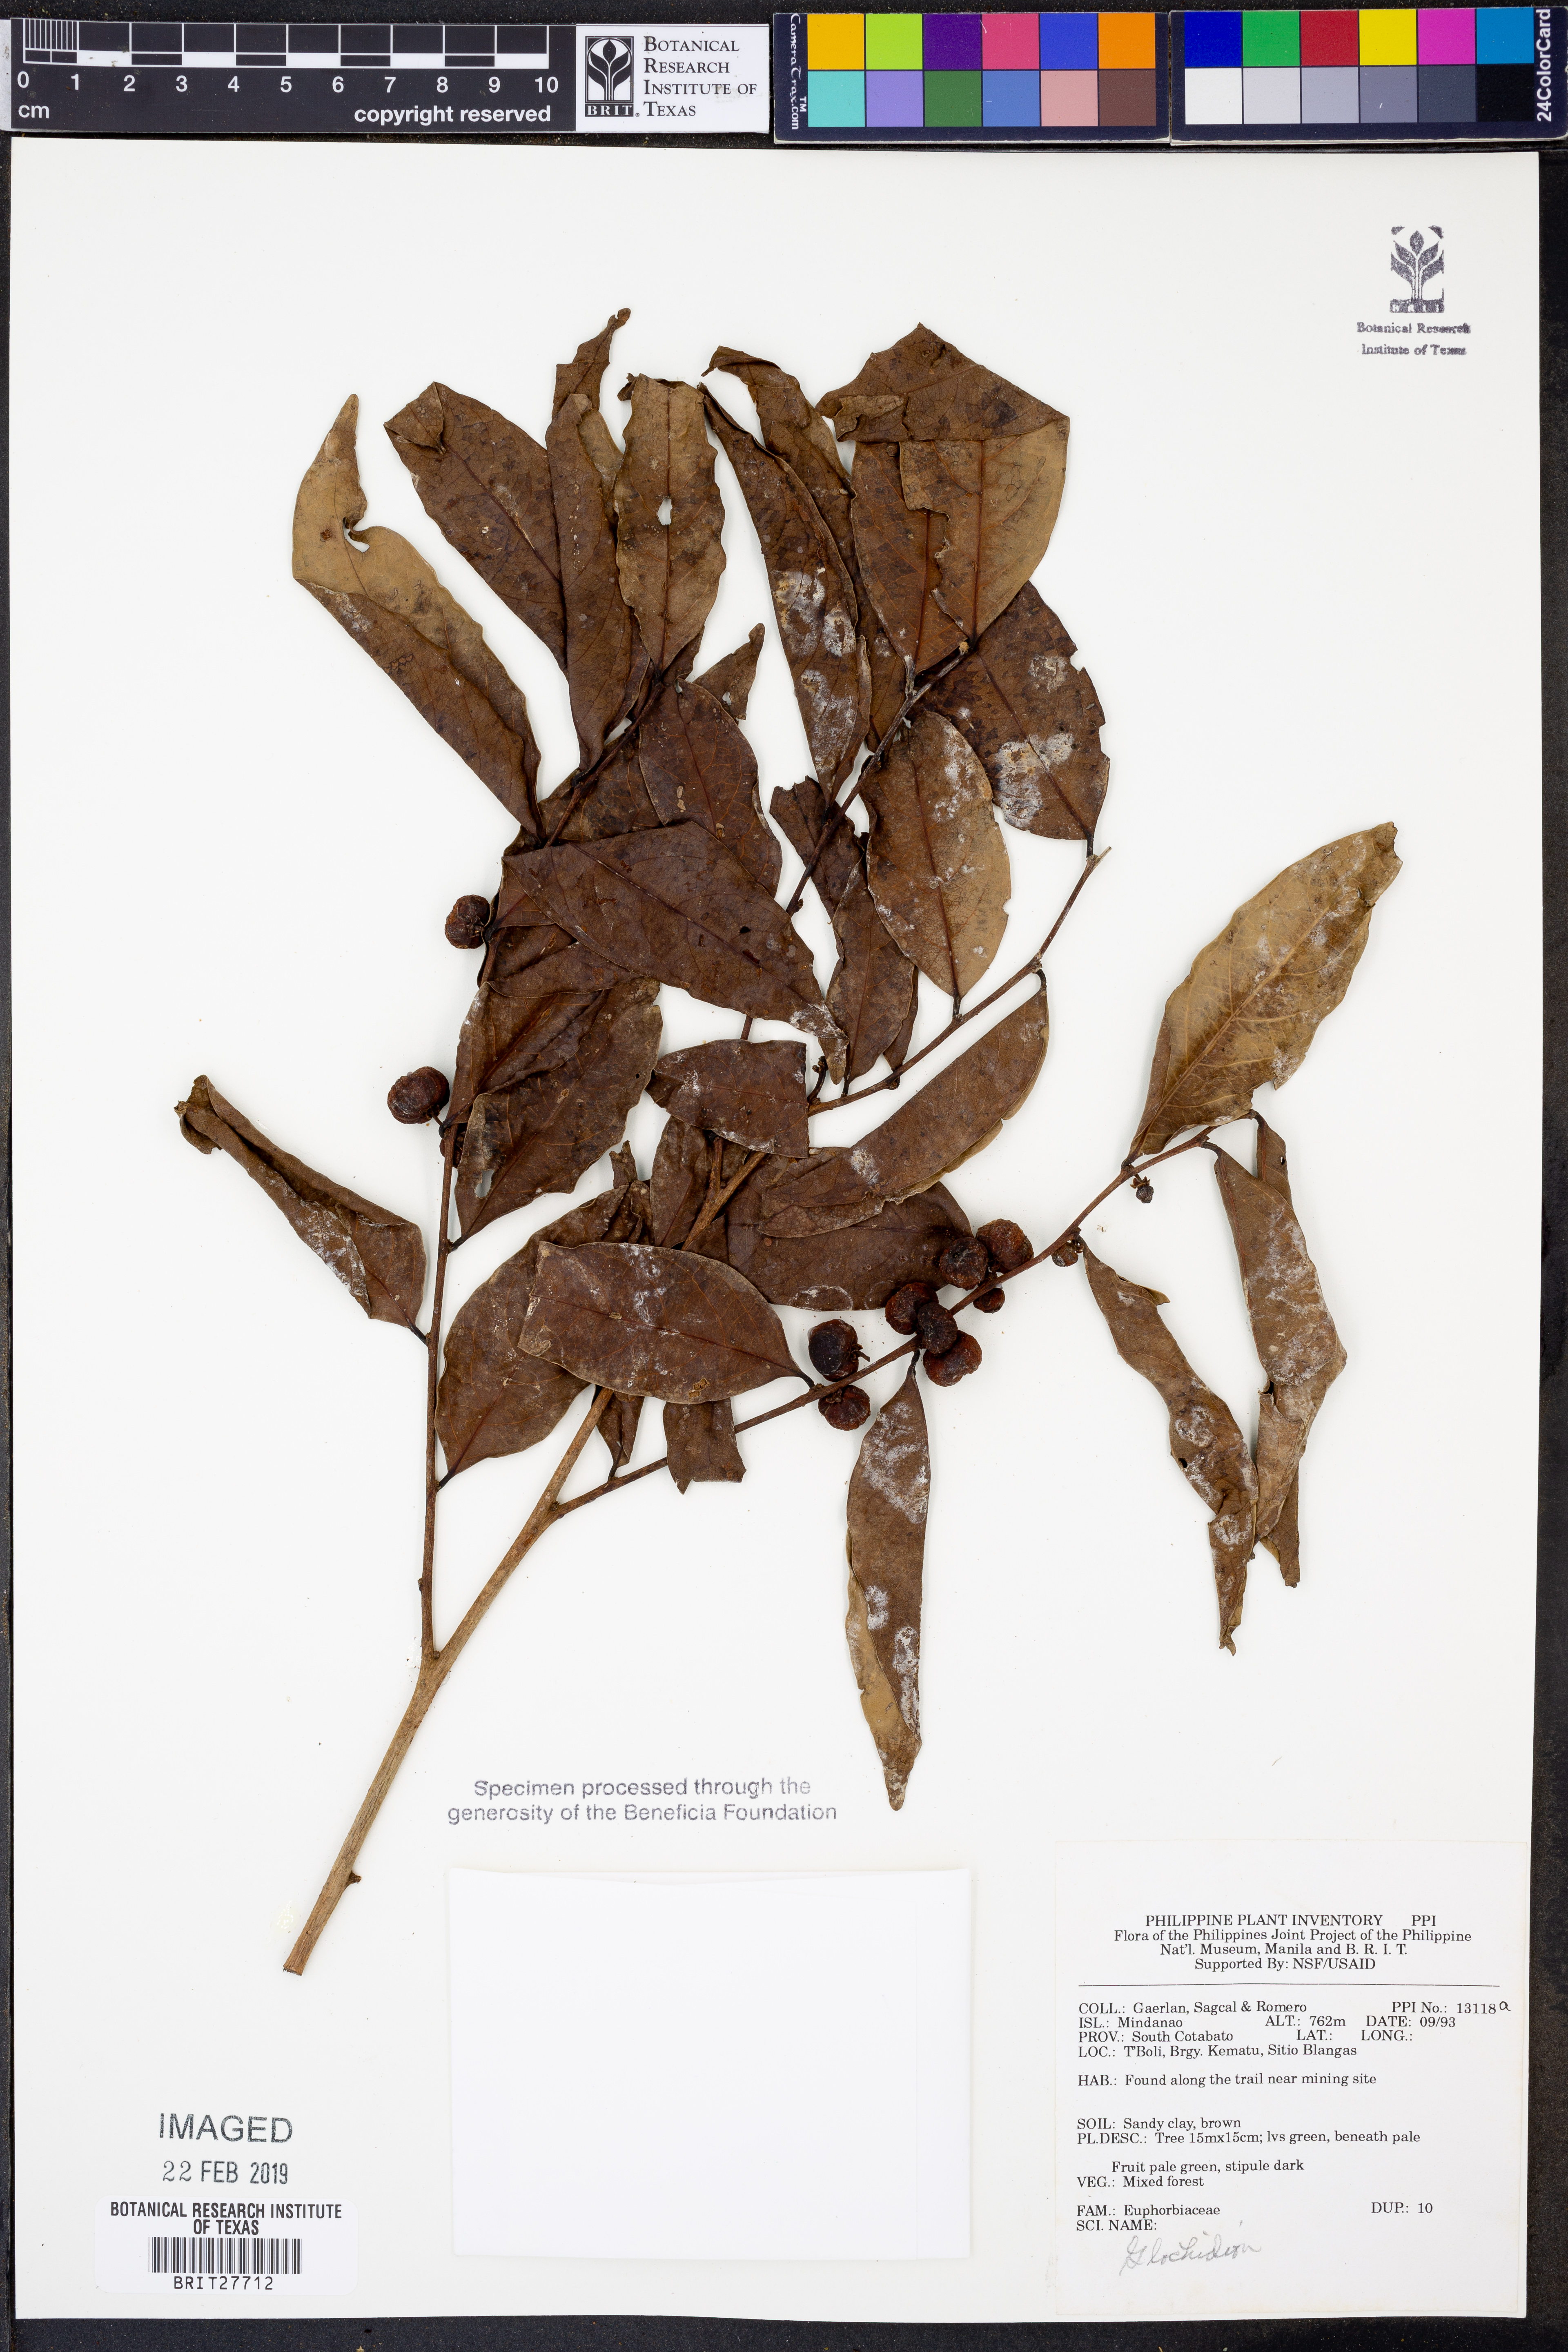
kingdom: Plantae
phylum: Tracheophyta
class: Magnoliopsida
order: Malpighiales
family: Phyllanthaceae
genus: Glochidion
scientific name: Glochidion
